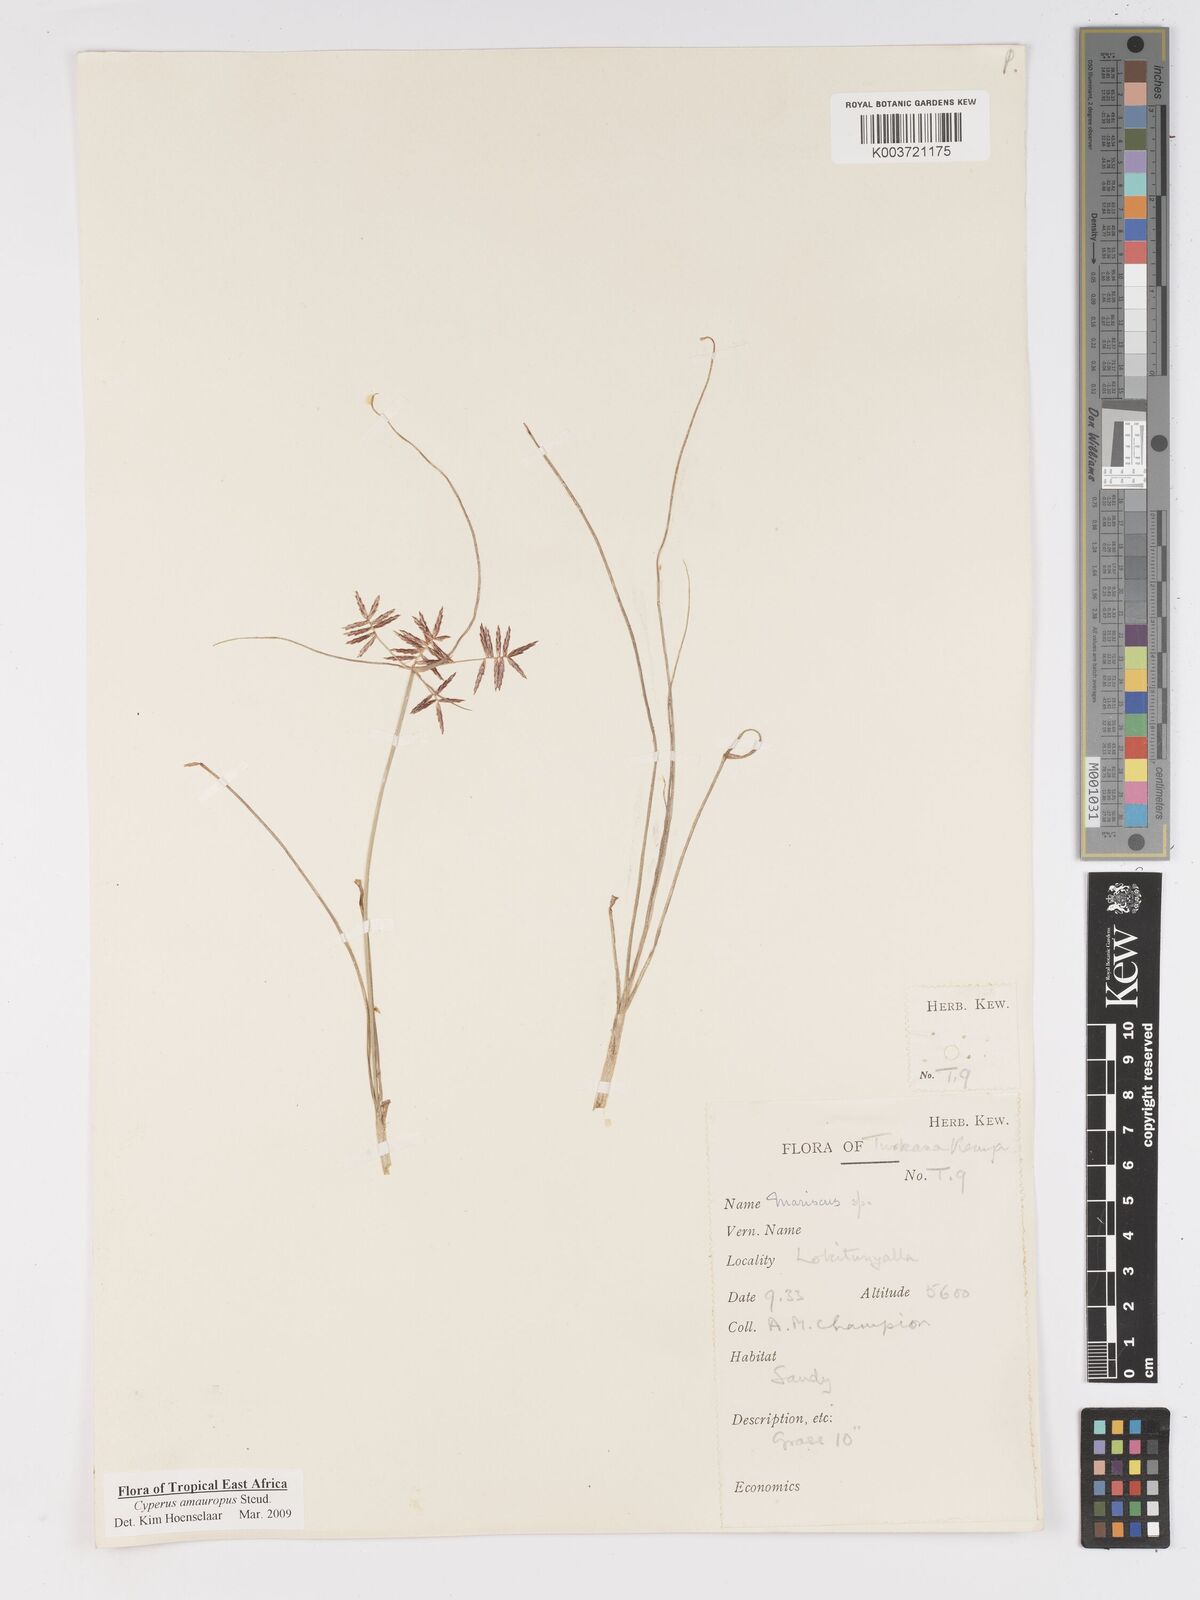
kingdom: Plantae
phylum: Tracheophyta
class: Liliopsida
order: Poales
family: Cyperaceae
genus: Cyperus
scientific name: Cyperus amauropus
